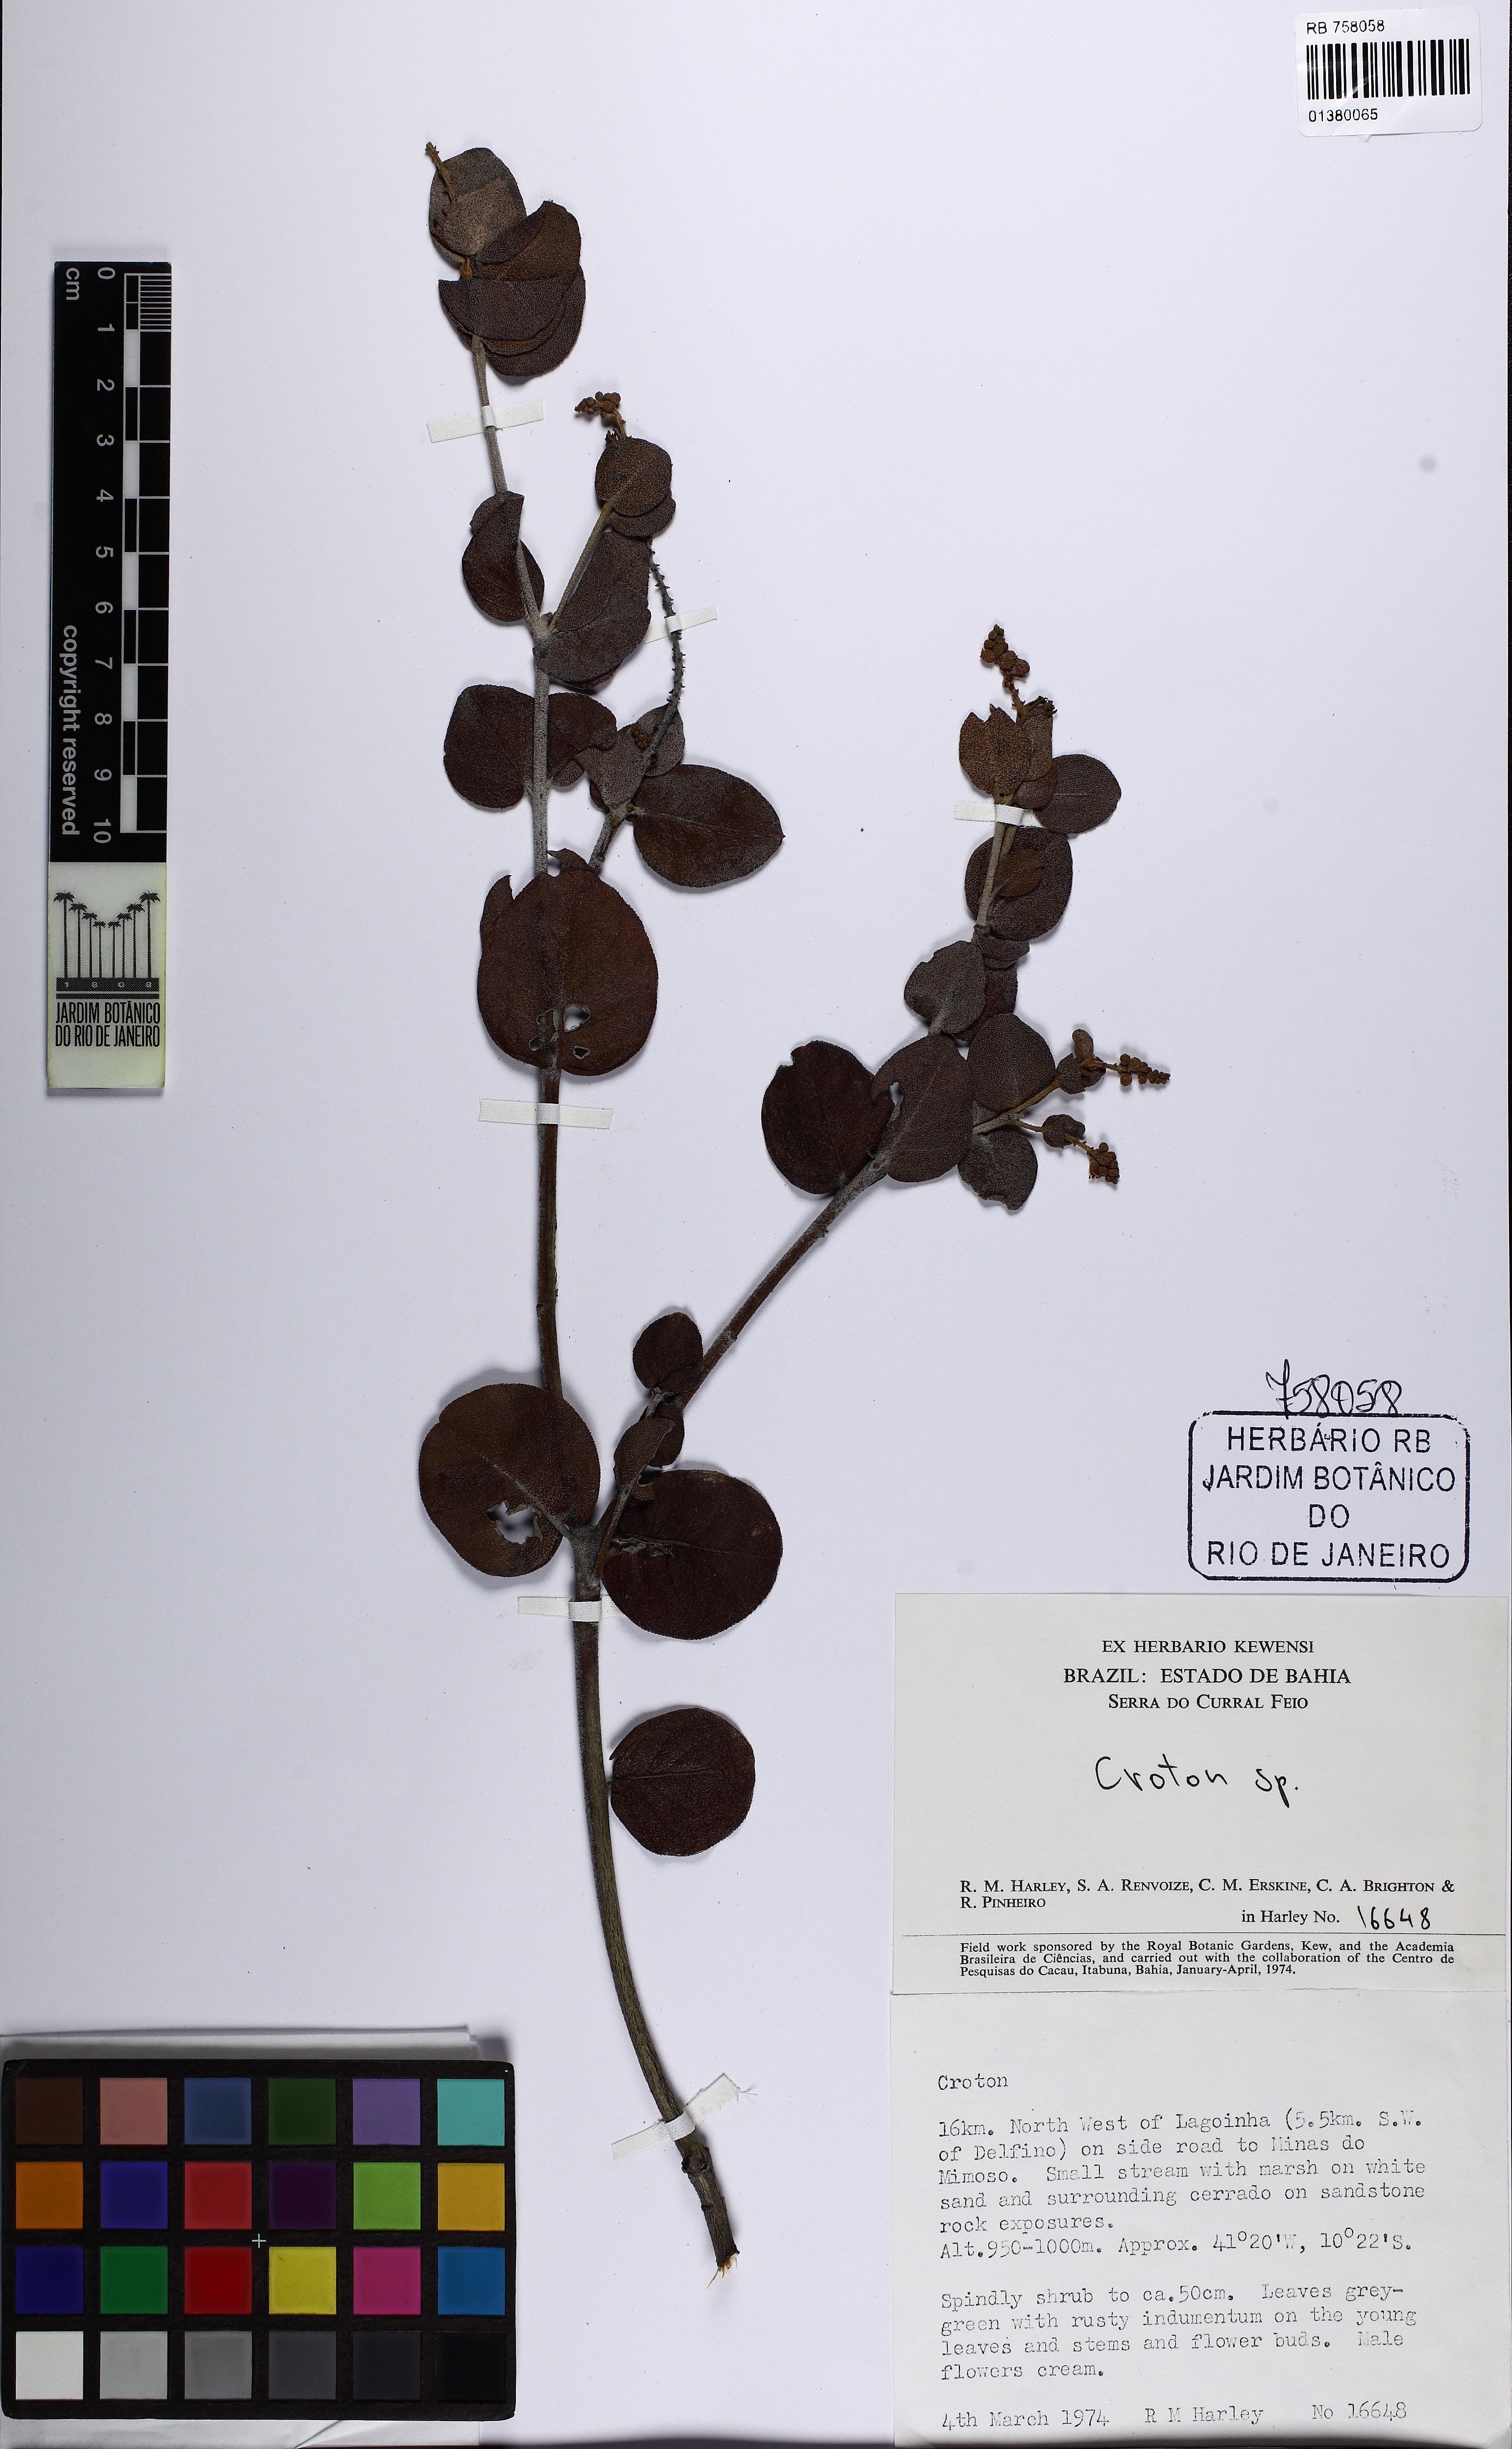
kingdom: Plantae
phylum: Tracheophyta
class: Magnoliopsida
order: Malpighiales
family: Euphorbiaceae
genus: Croton
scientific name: Croton velutinus
